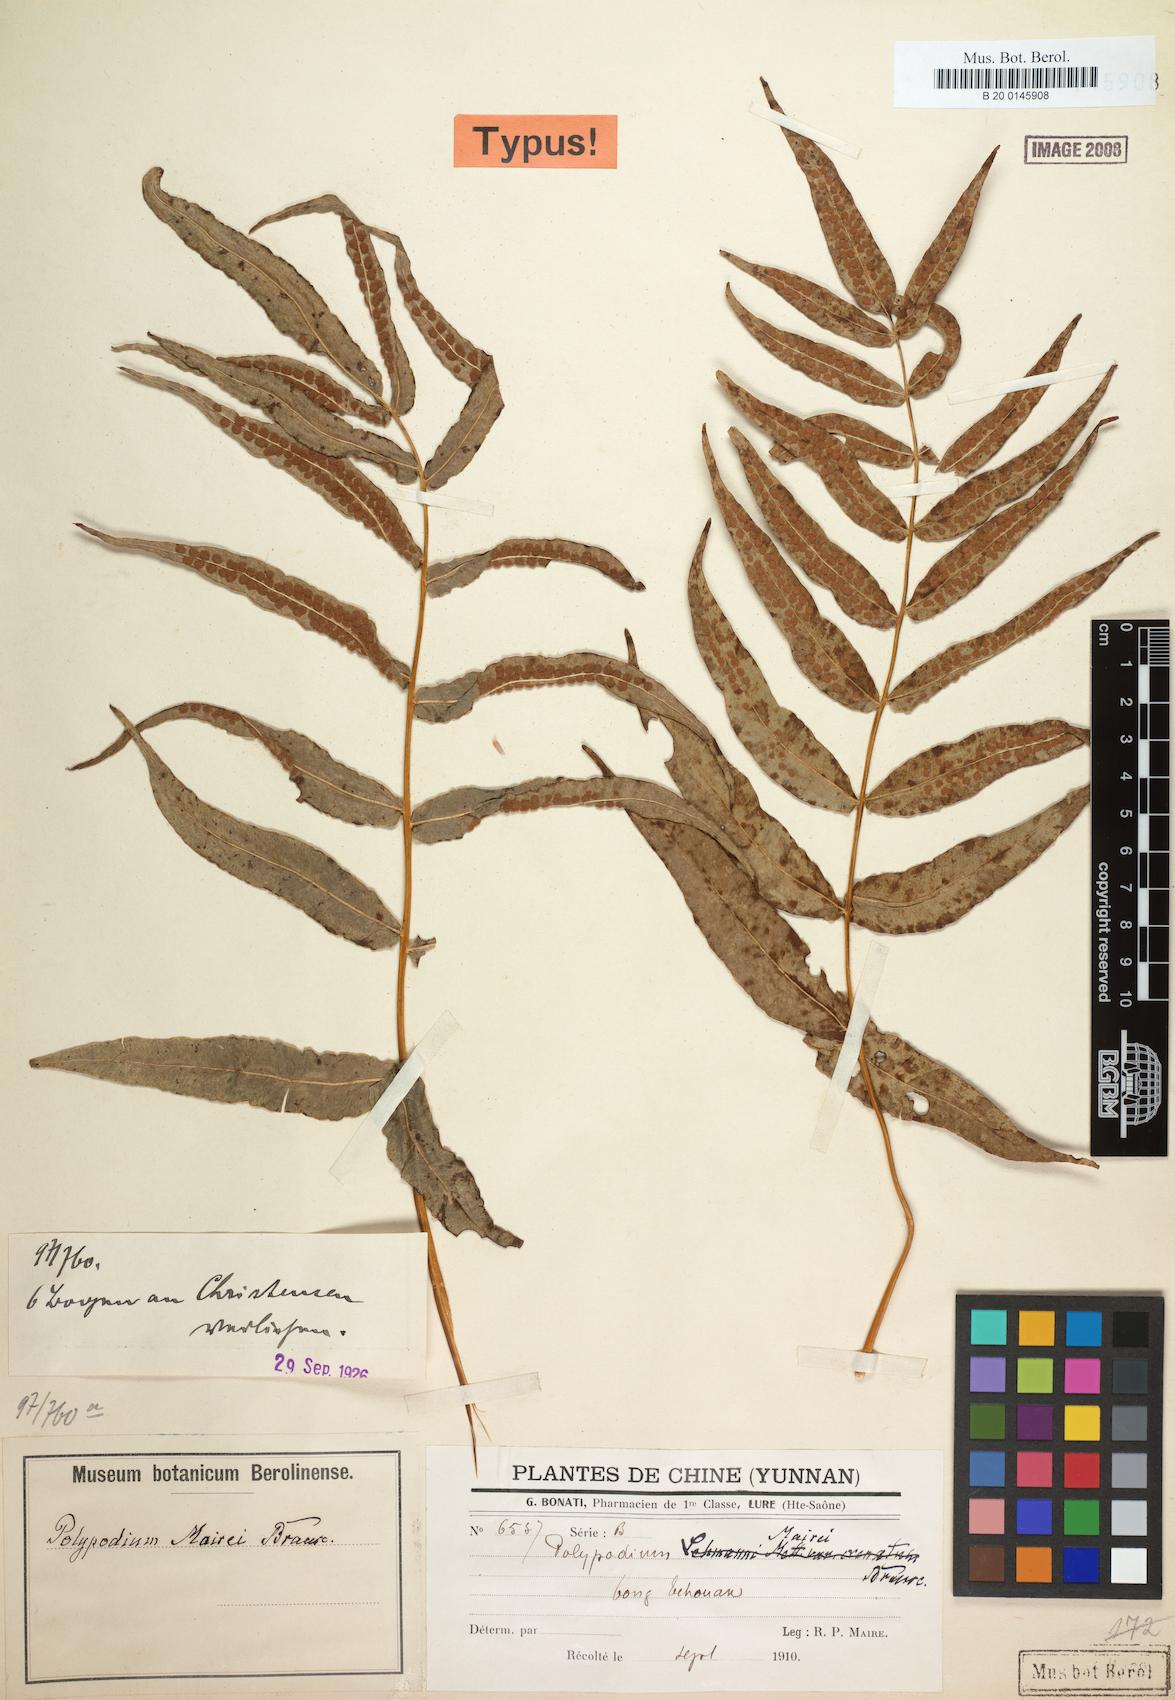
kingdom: Plantae
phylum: Tracheophyta
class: Polypodiopsida
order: Polypodiales
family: Polypodiaceae
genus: Selliguea
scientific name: Selliguea moulmeinensis
